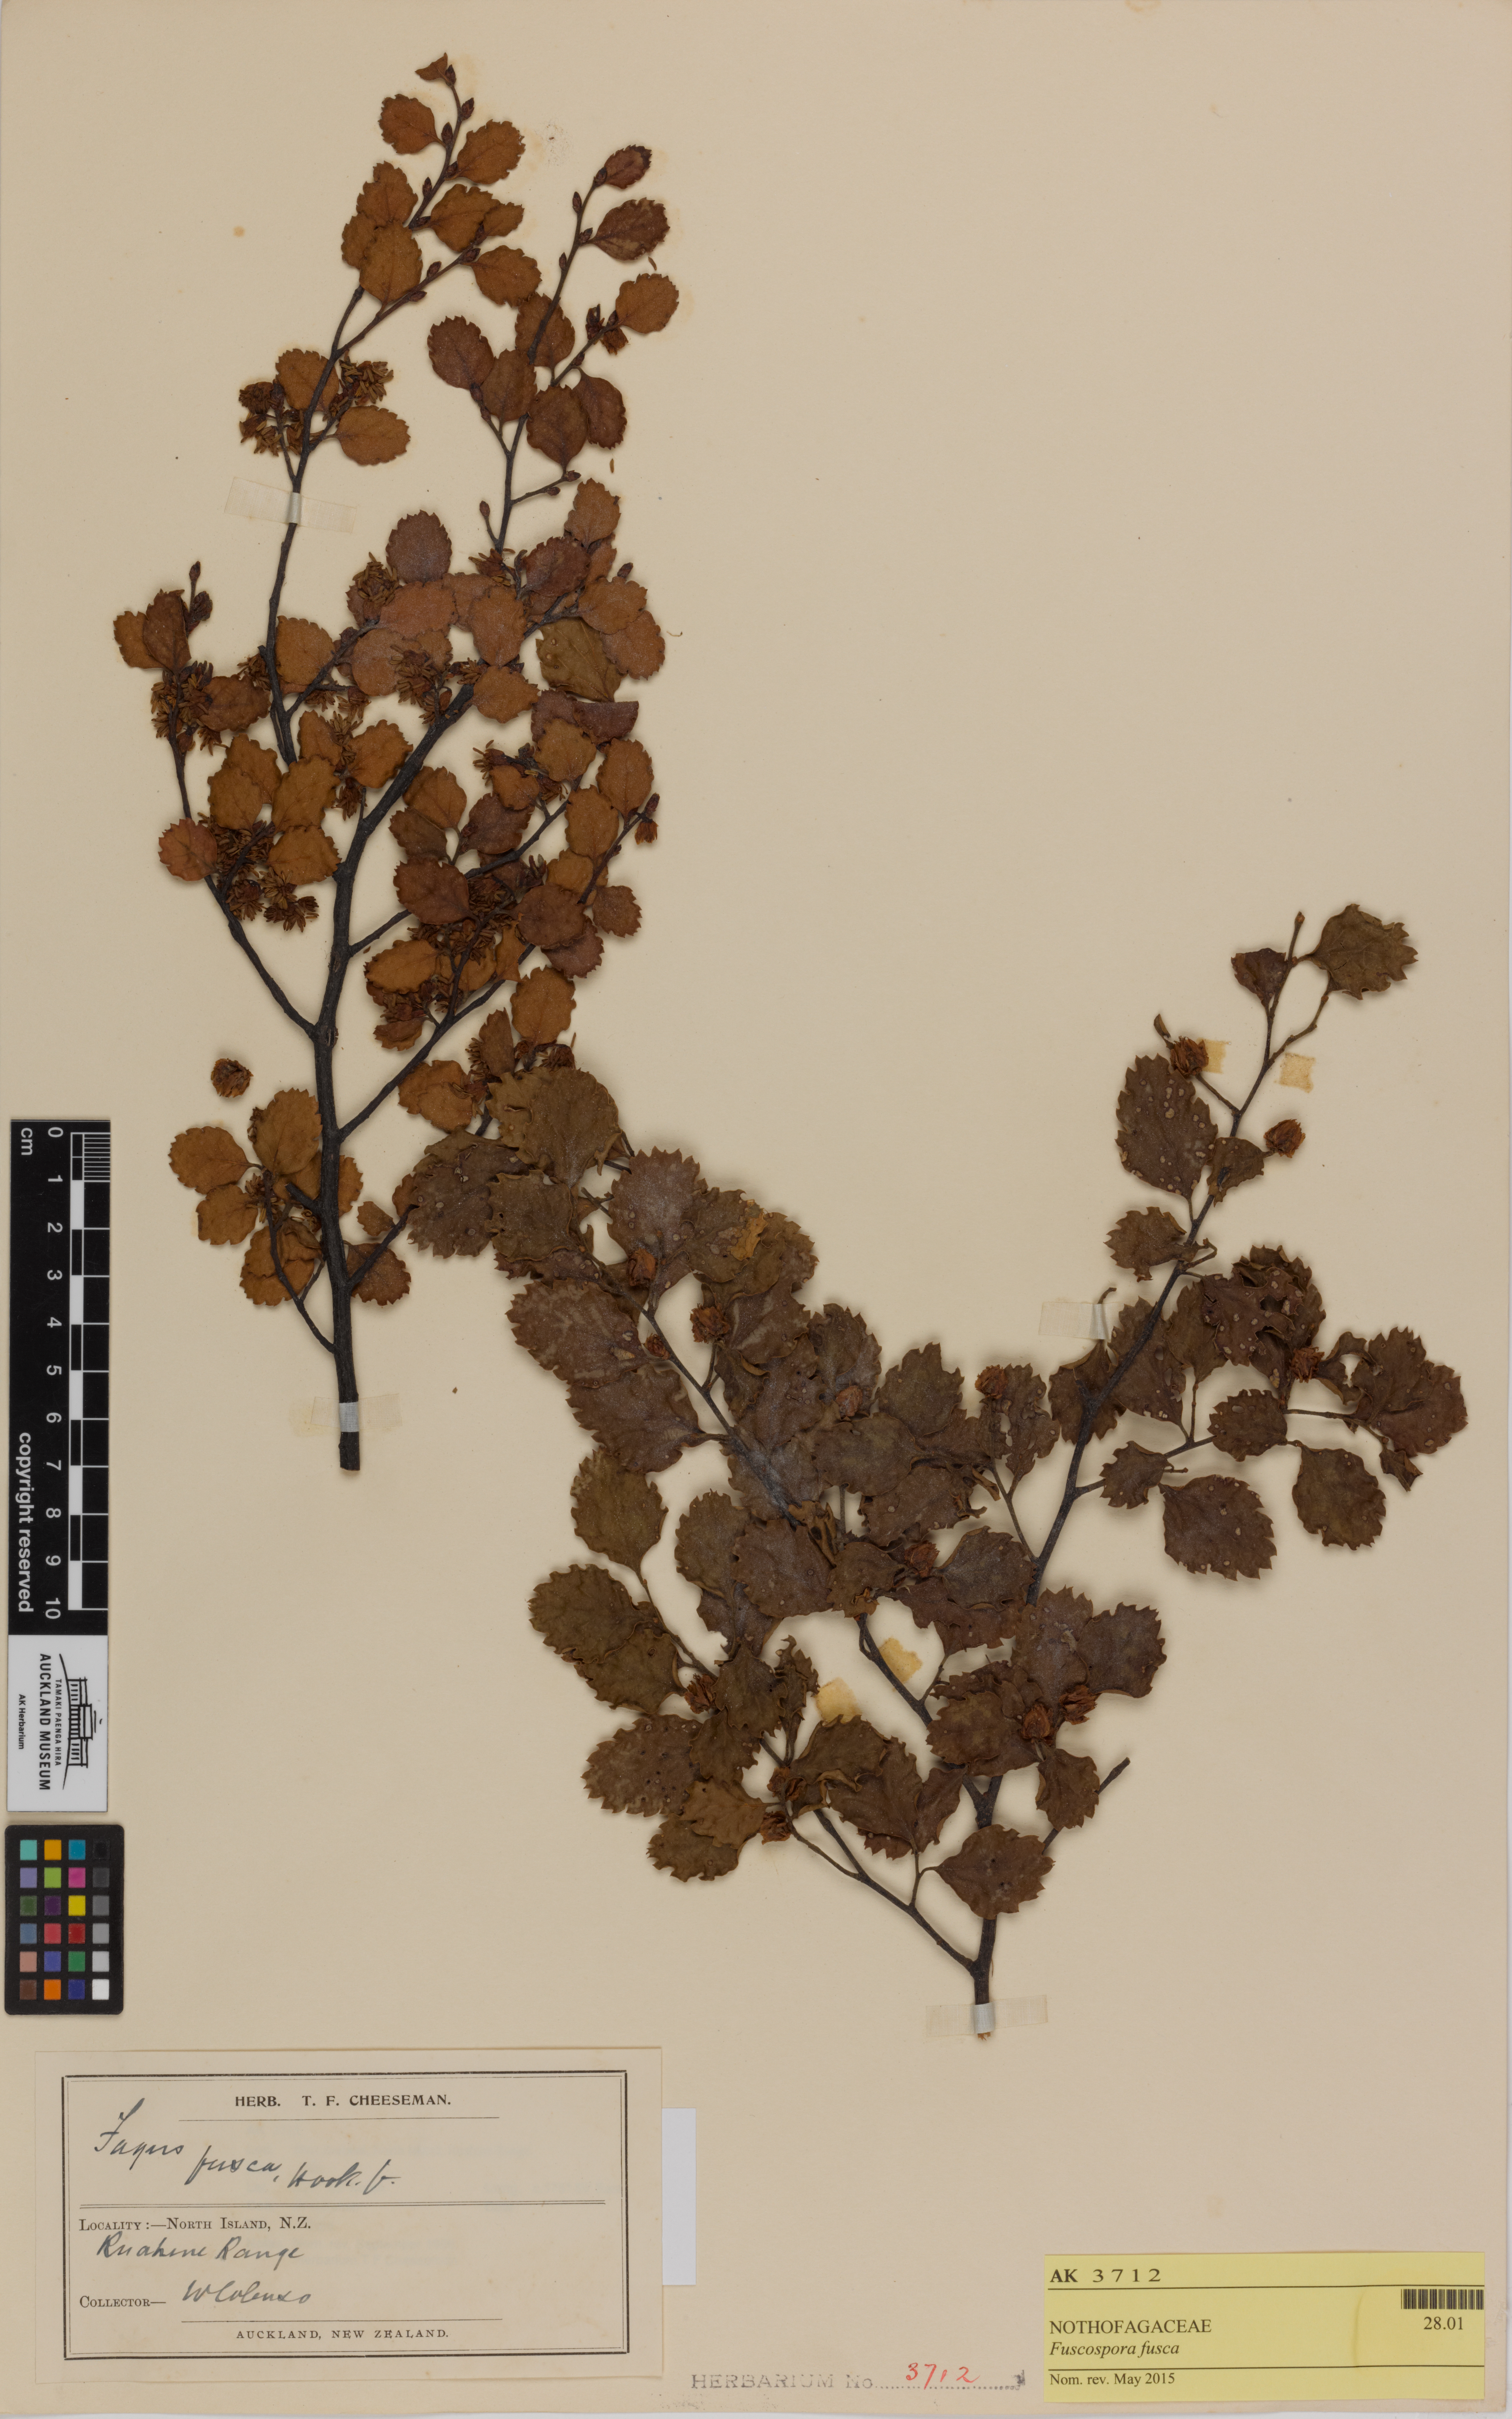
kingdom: Plantae
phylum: Tracheophyta
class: Magnoliopsida
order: Fagales
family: Nothofagaceae
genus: Nothofagus
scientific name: Nothofagus fusca
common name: Red beech
